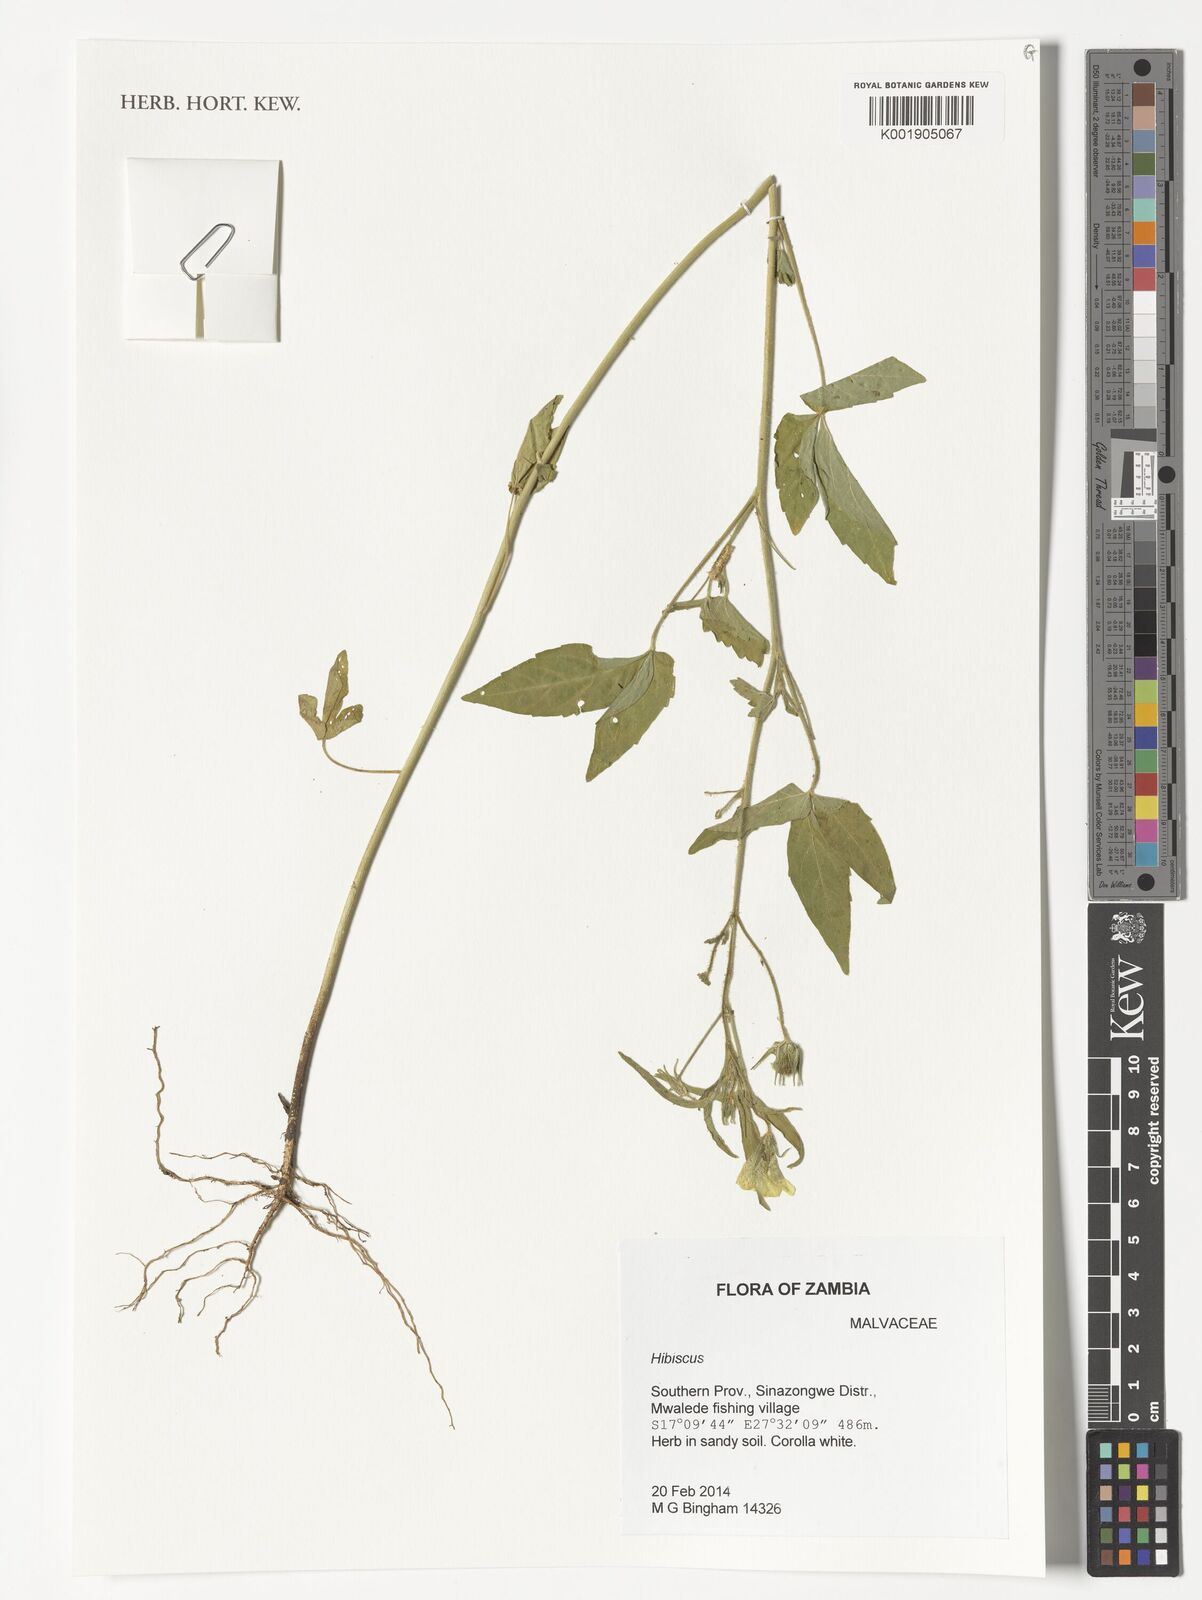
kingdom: Plantae
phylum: Tracheophyta
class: Magnoliopsida
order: Malvales
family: Malvaceae
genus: Hibiscus
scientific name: Hibiscus
